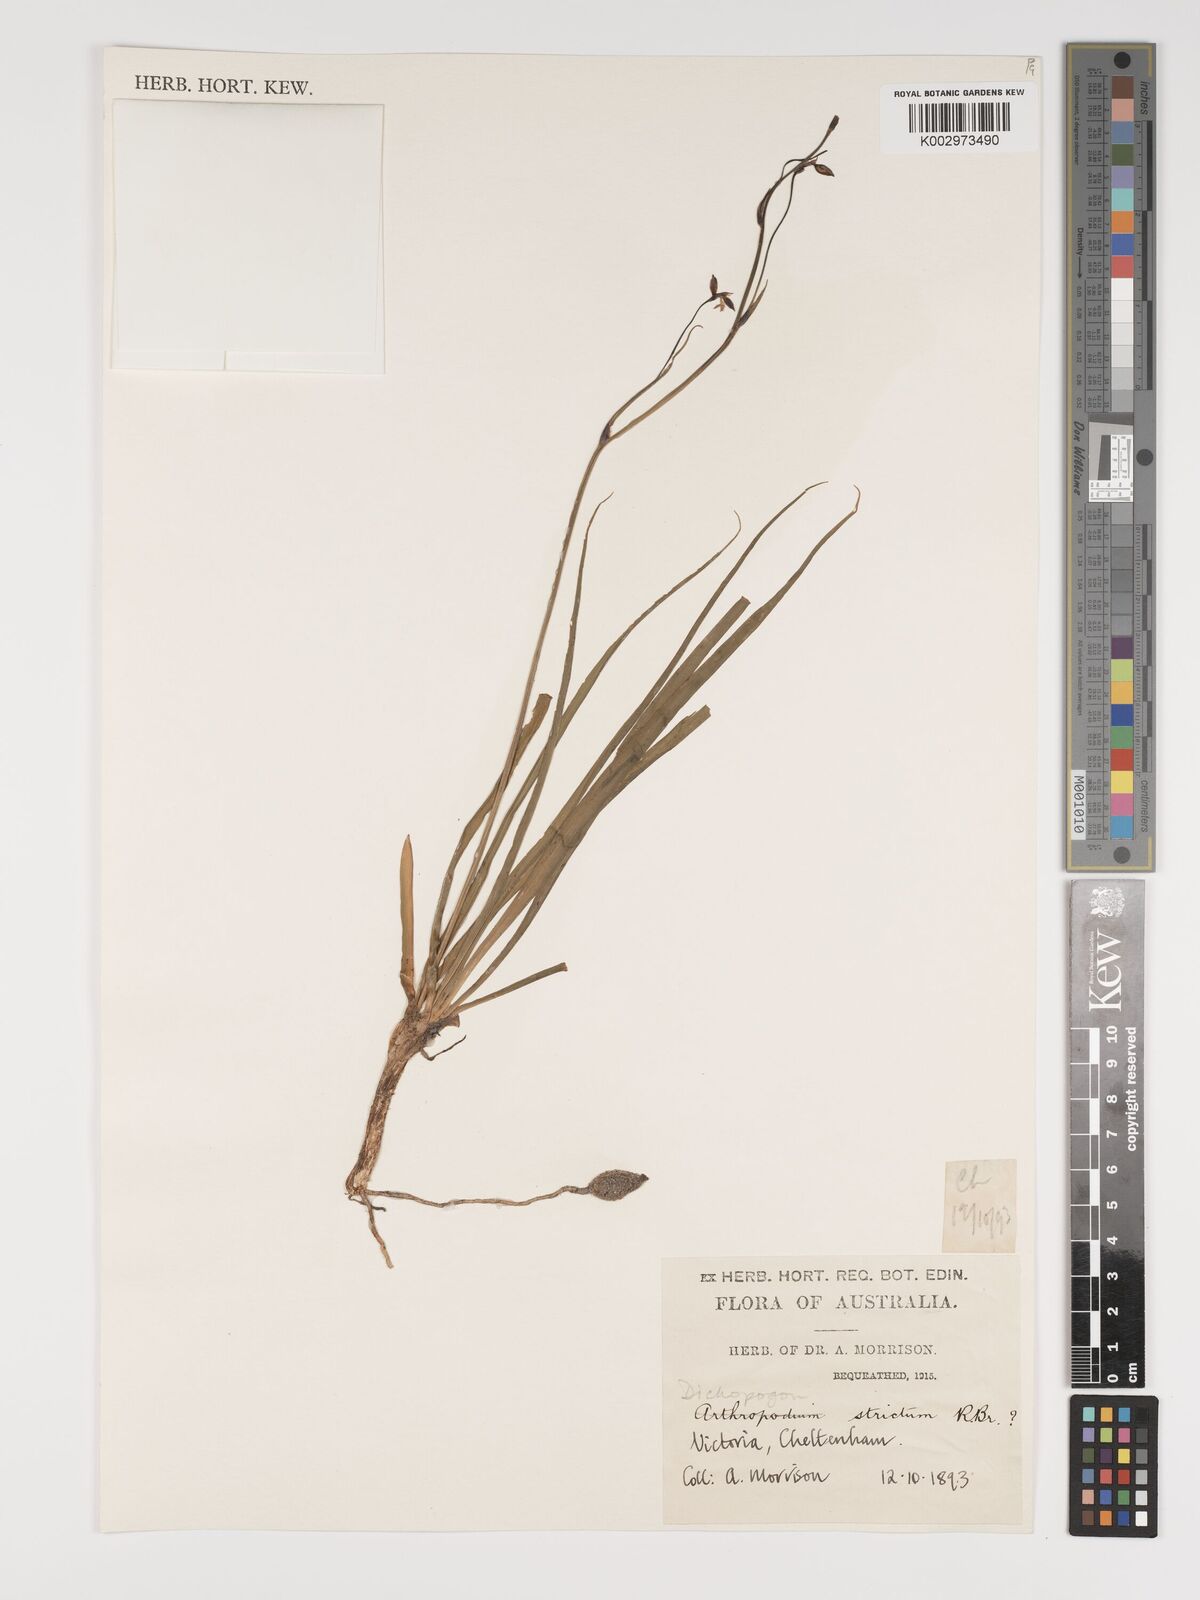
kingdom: Plantae
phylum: Tracheophyta
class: Liliopsida
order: Asparagales
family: Asparagaceae
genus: Arthropodium
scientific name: Arthropodium strictum
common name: Chocolate-lily
